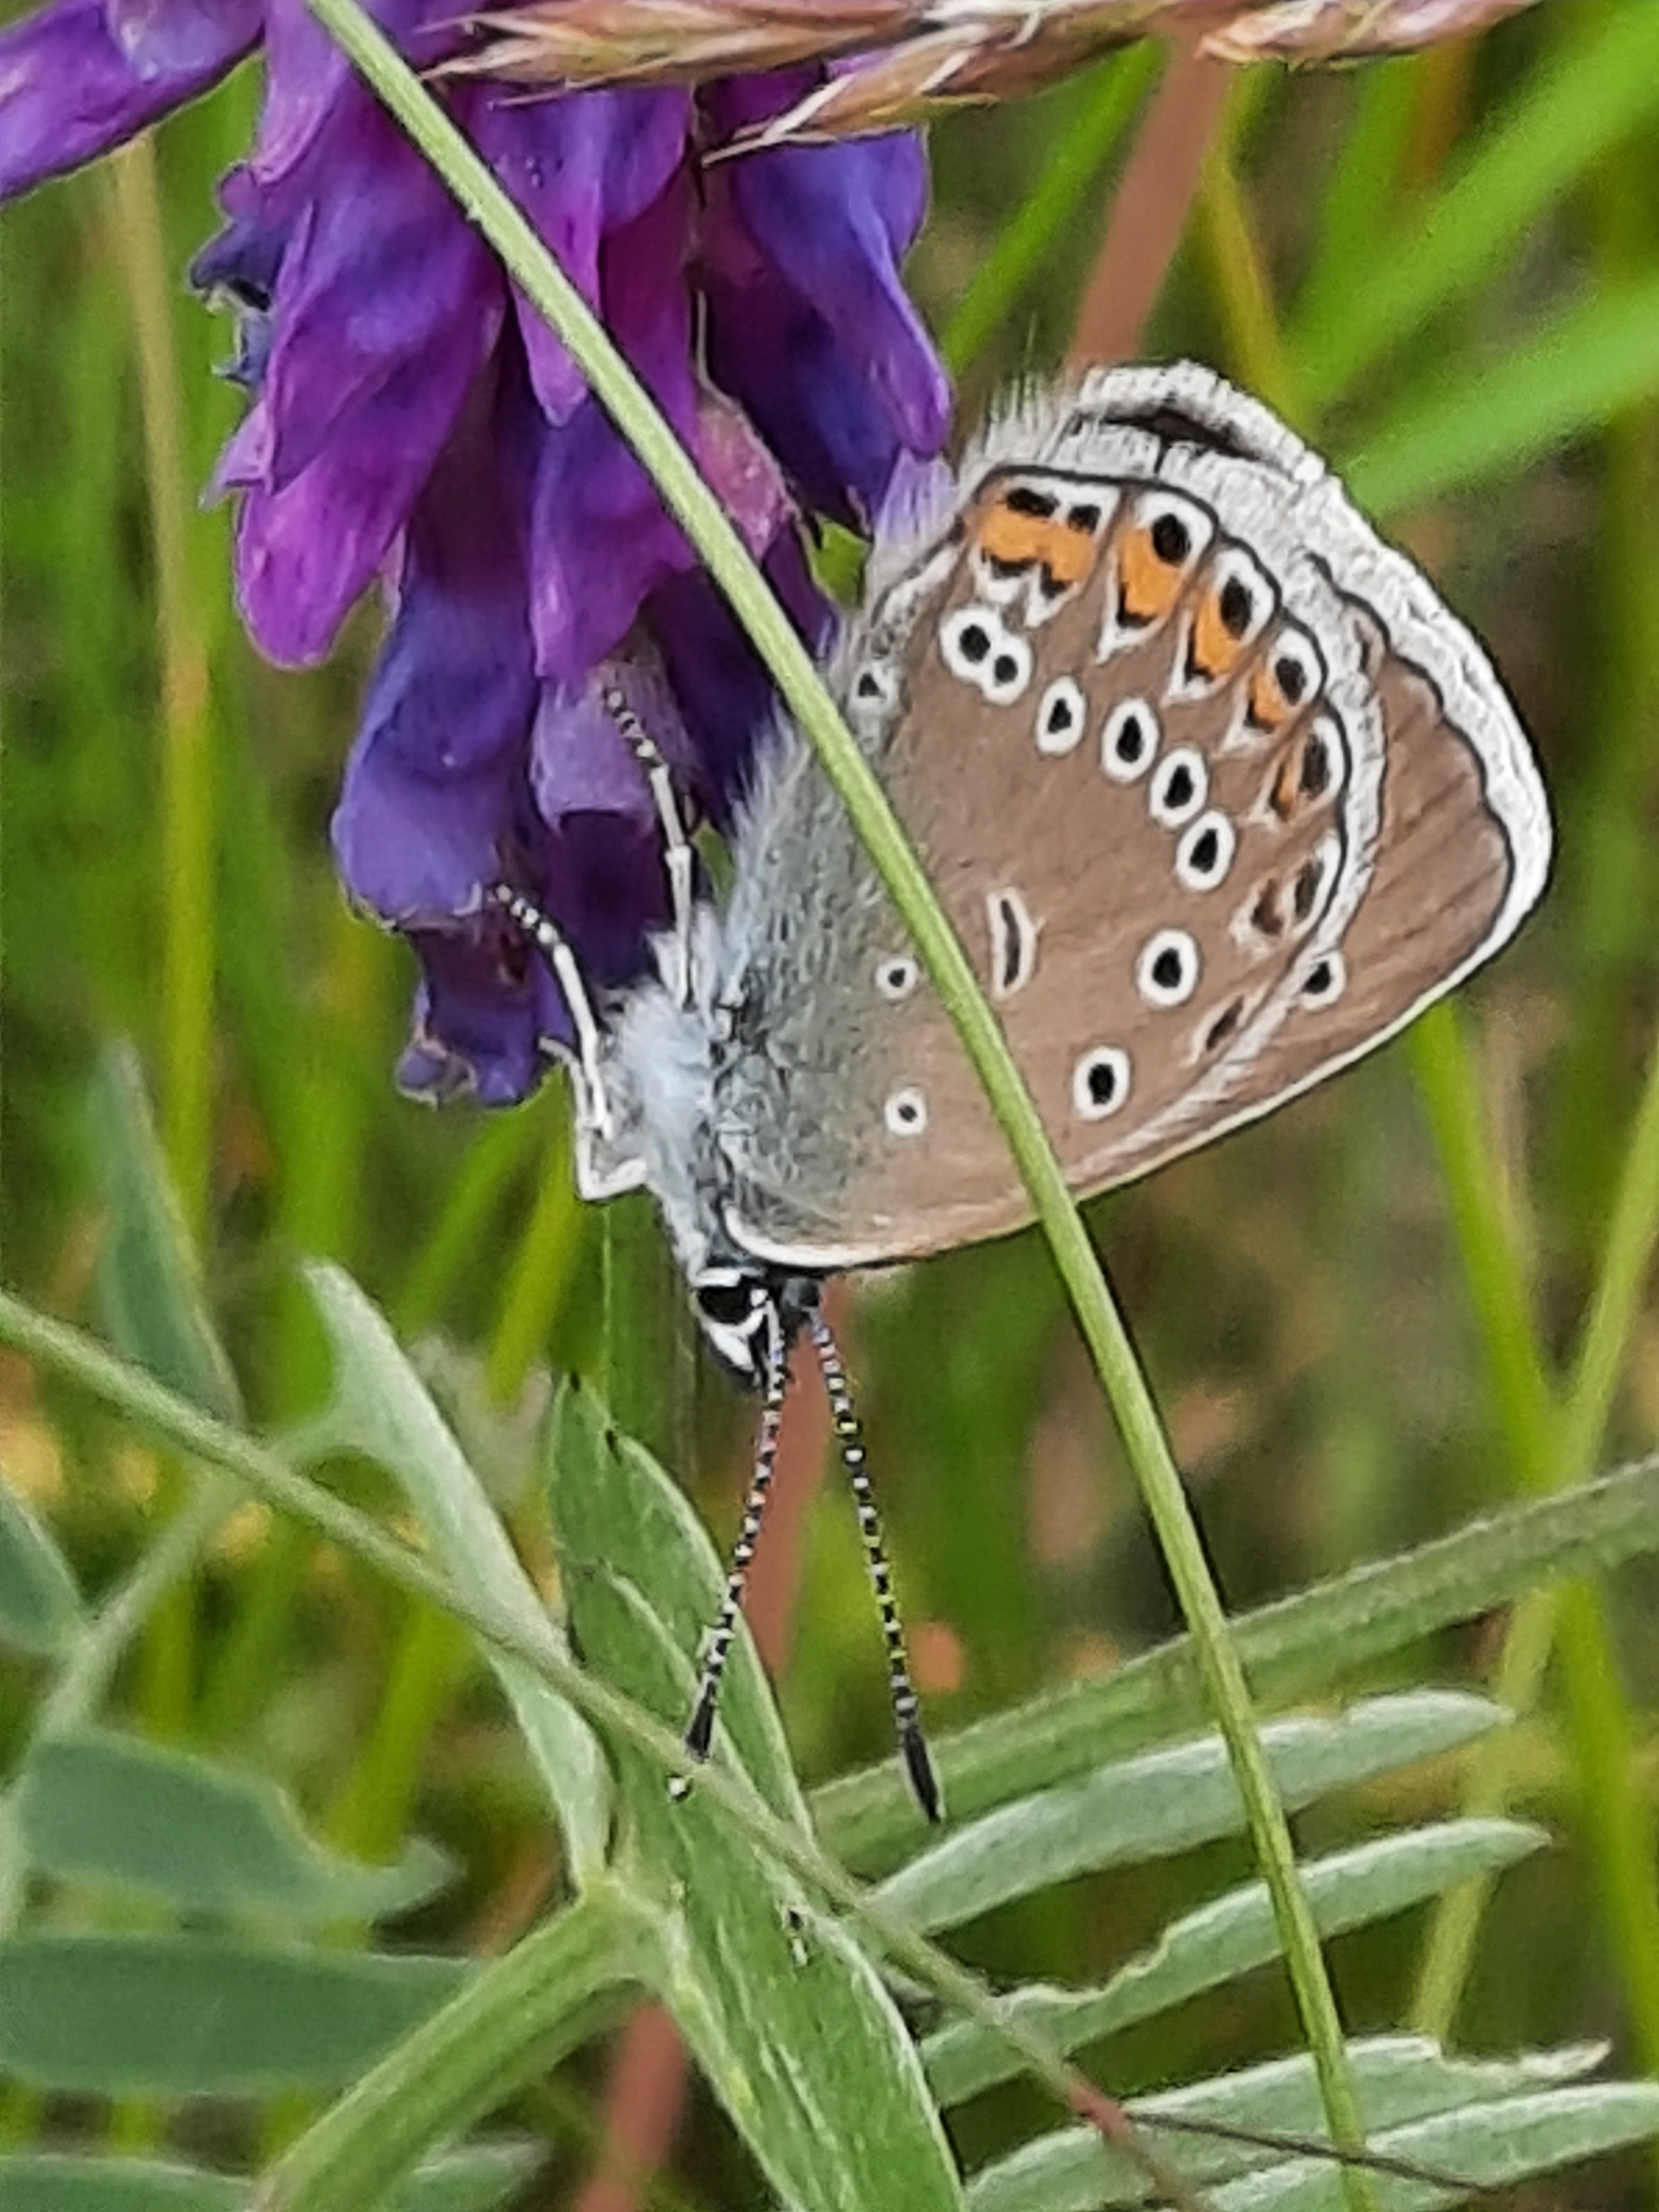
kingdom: Animalia
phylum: Arthropoda
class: Insecta
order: Lepidoptera
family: Lycaenidae
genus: Plebejus
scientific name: Plebejus amanda
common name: Isblåfugl
